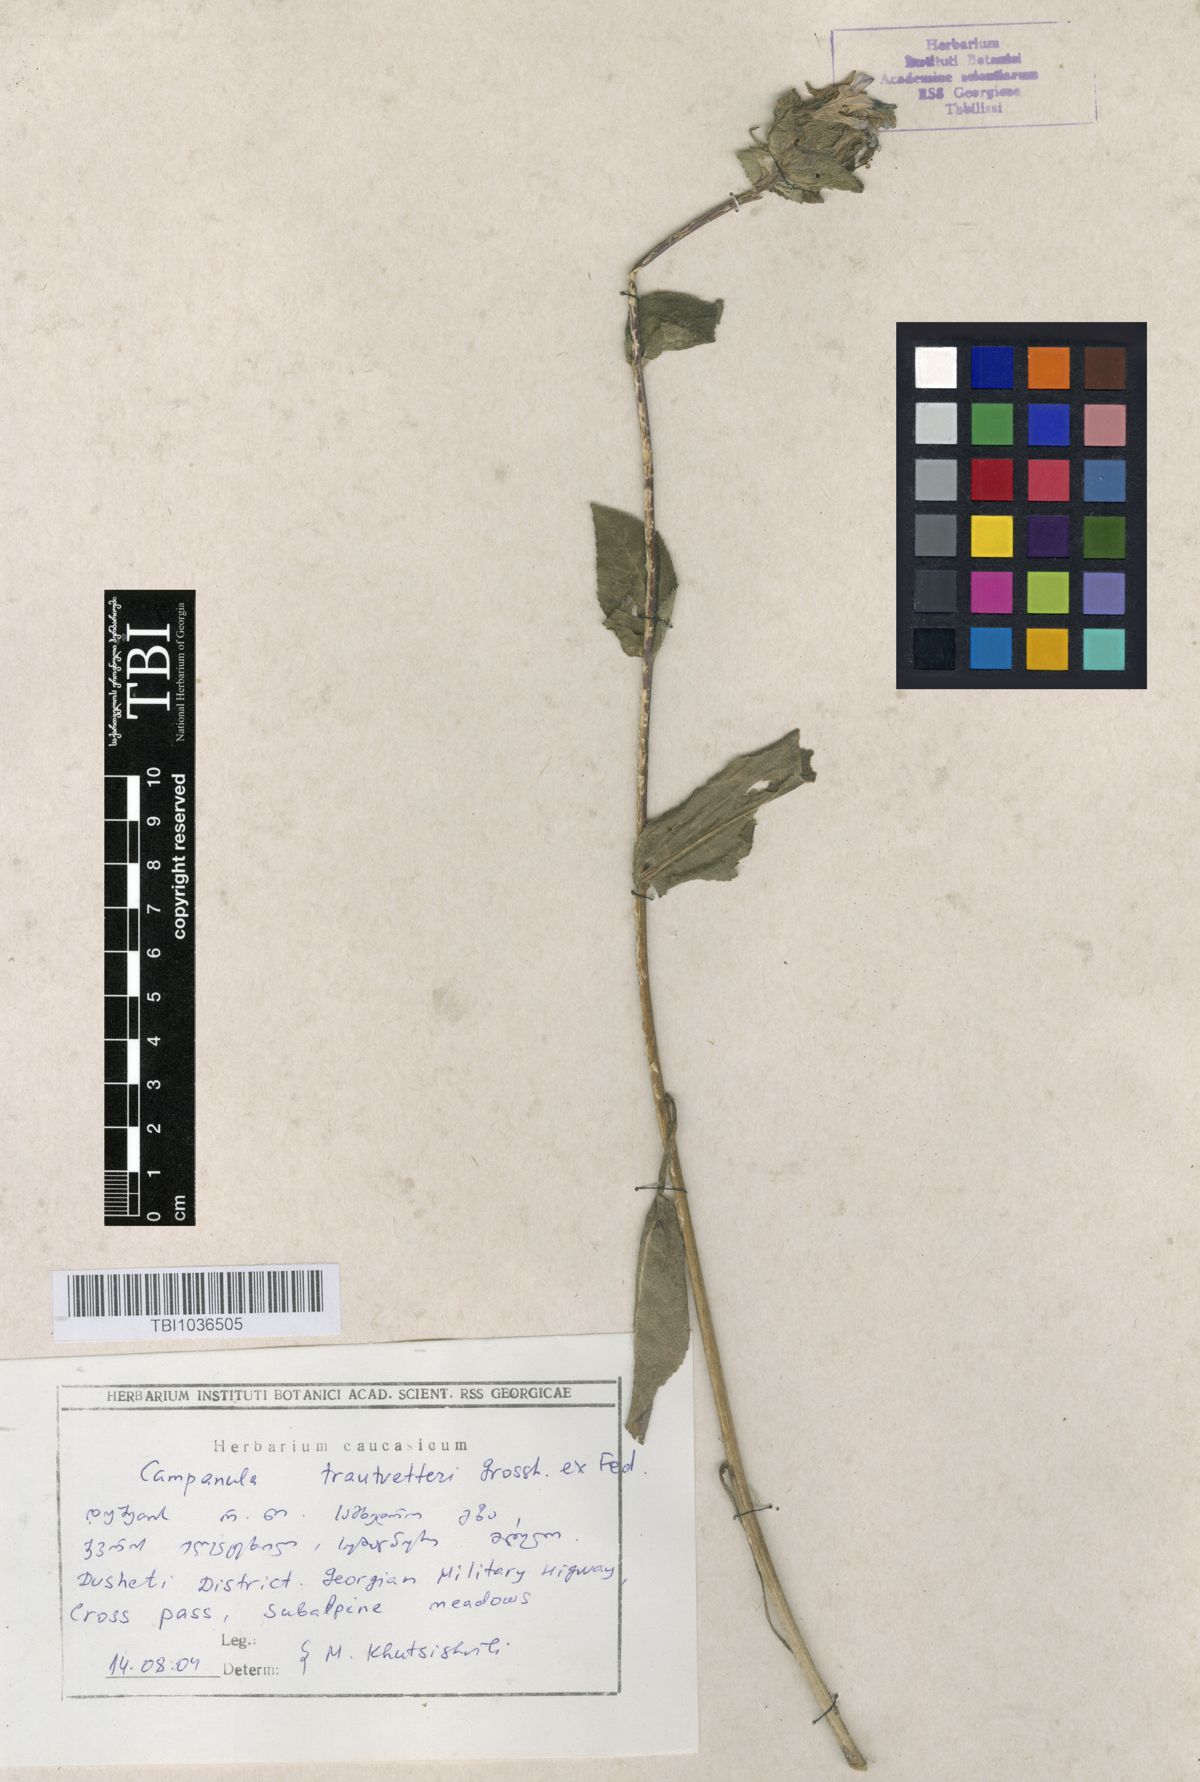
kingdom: Plantae
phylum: Tracheophyta
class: Magnoliopsida
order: Asterales
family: Campanulaceae
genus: Campanula
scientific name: Campanula glomerata
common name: Clustered bellflower
